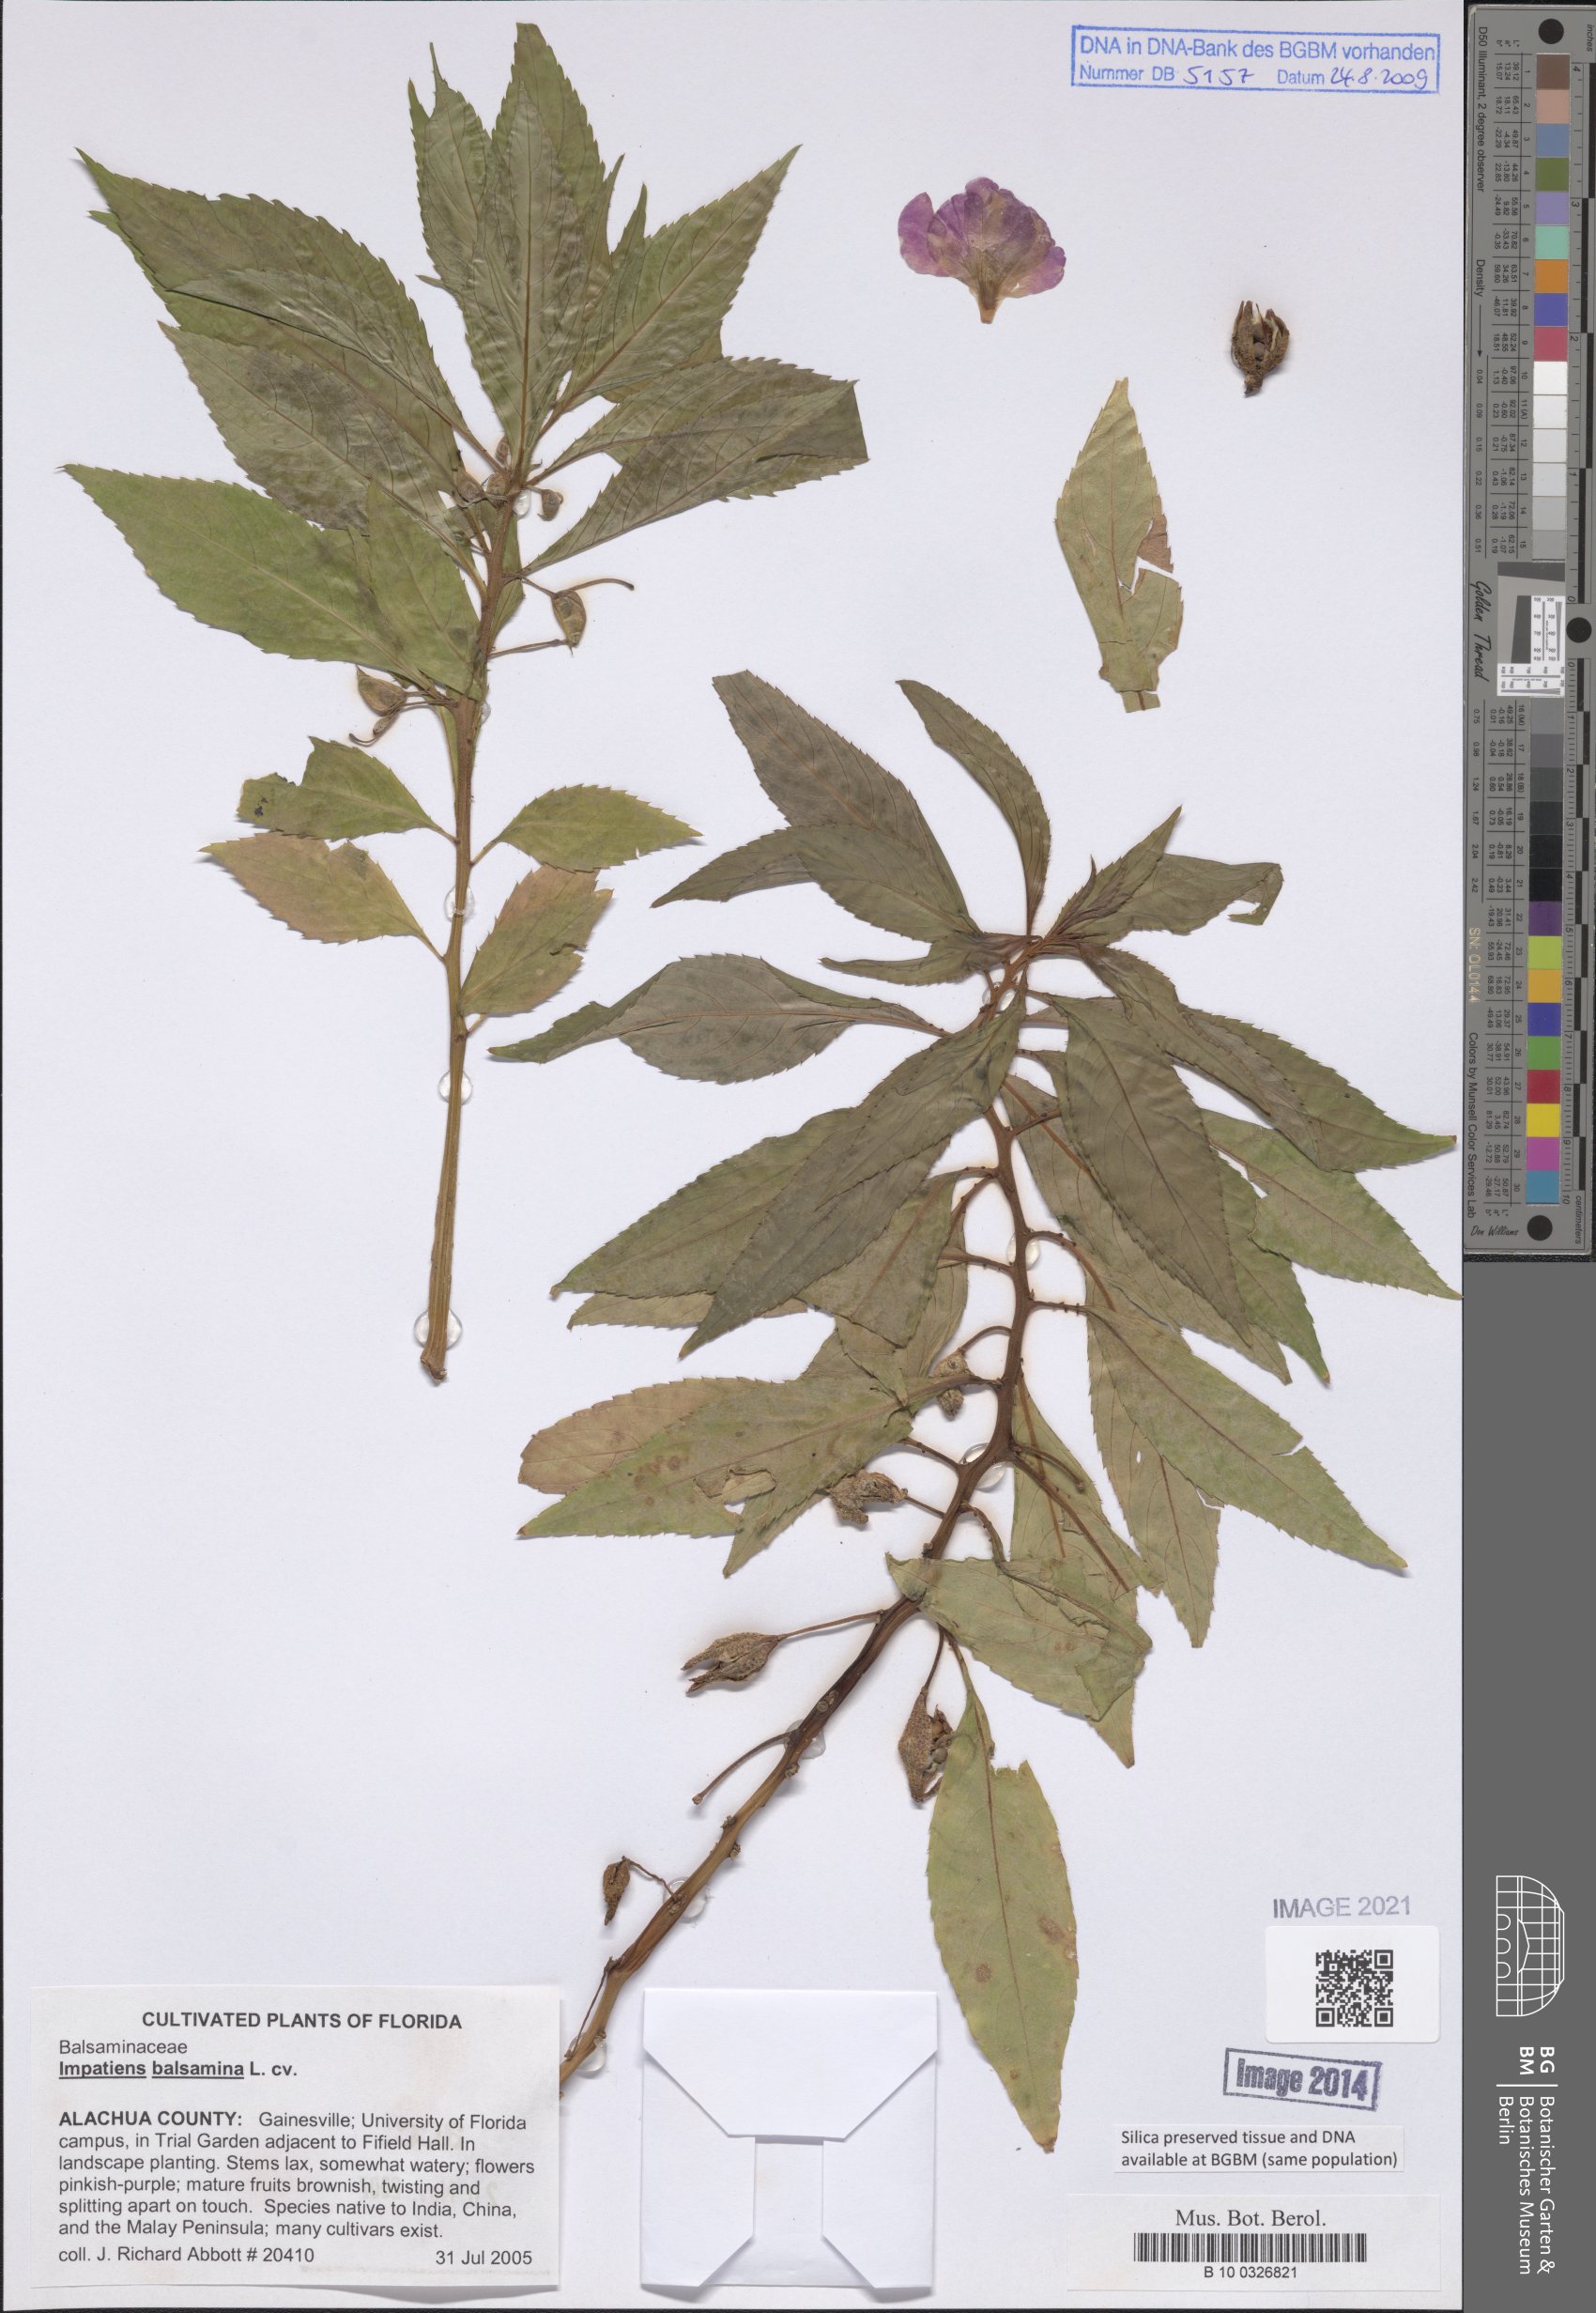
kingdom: Plantae
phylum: Tracheophyta
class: Magnoliopsida
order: Ericales
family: Balsaminaceae
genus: Impatiens
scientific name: Impatiens balsamina
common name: Balsam
